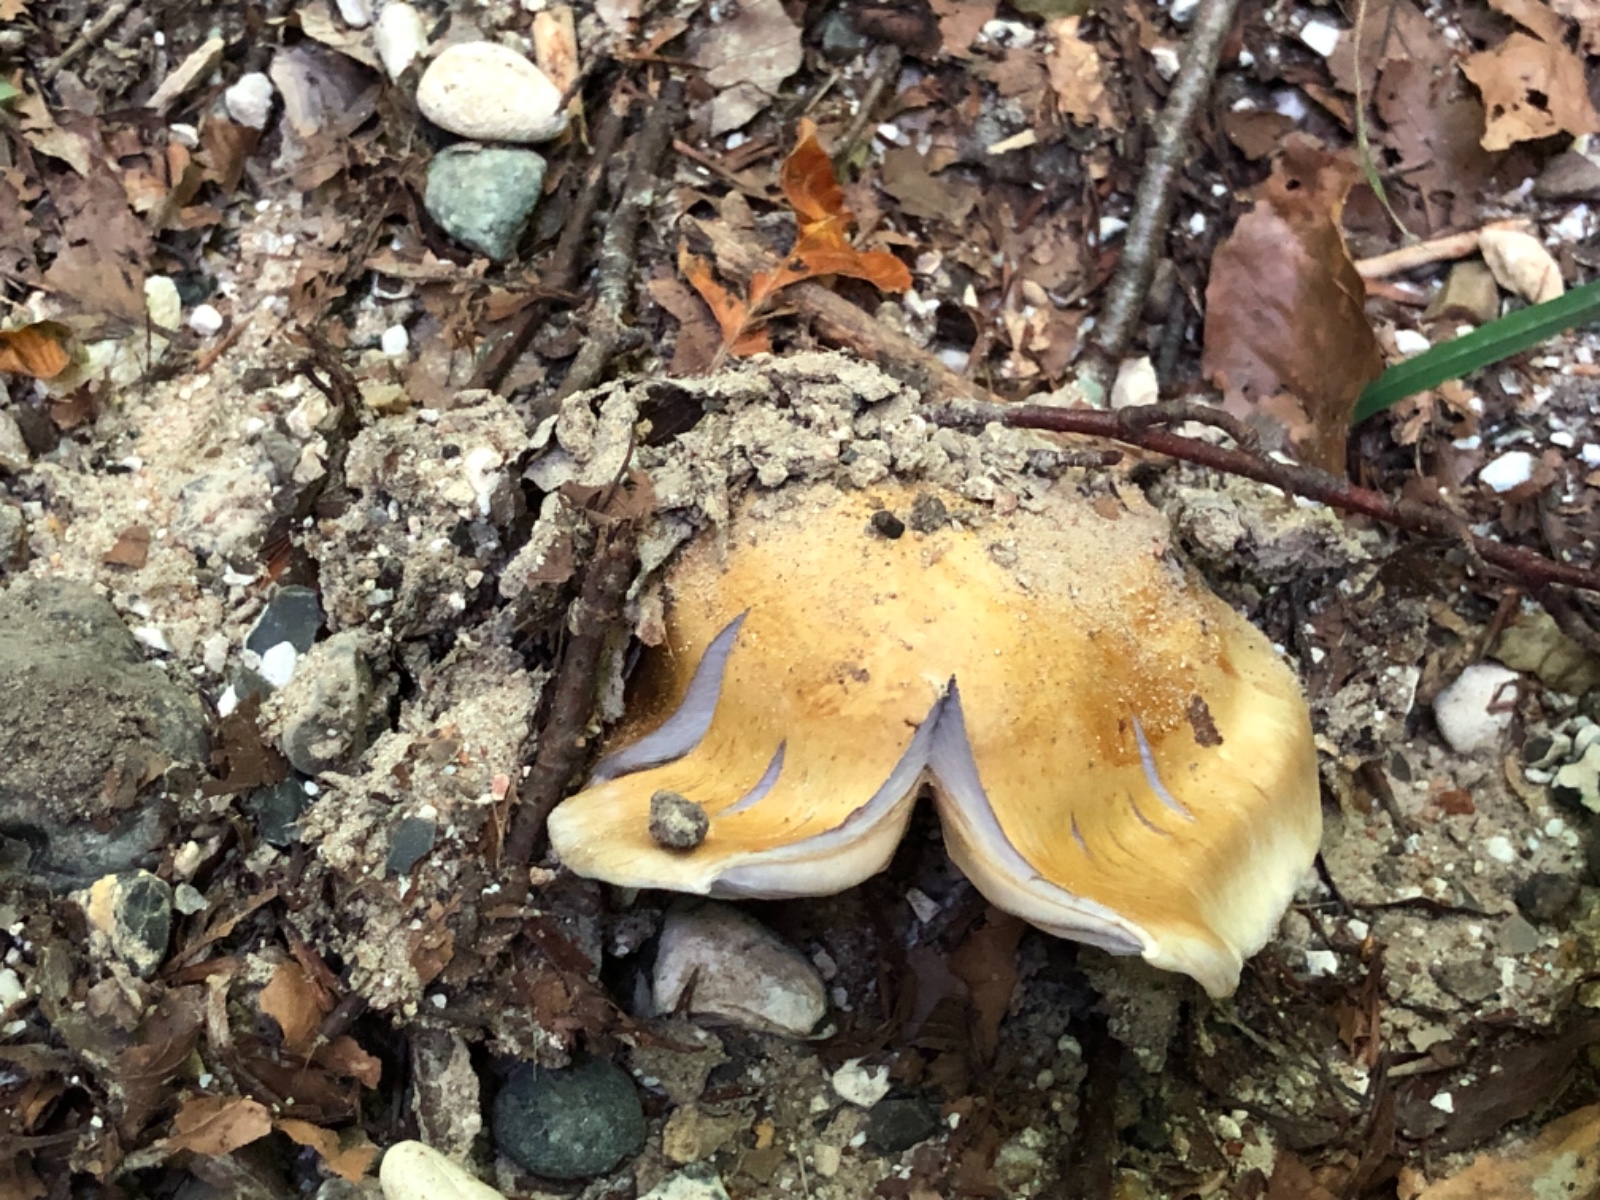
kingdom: Fungi
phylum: Basidiomycota
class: Agaricomycetes
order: Agaricales
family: Cortinariaceae
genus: Cortinarius
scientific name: Cortinarius anserinus
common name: bøge-slørhat
